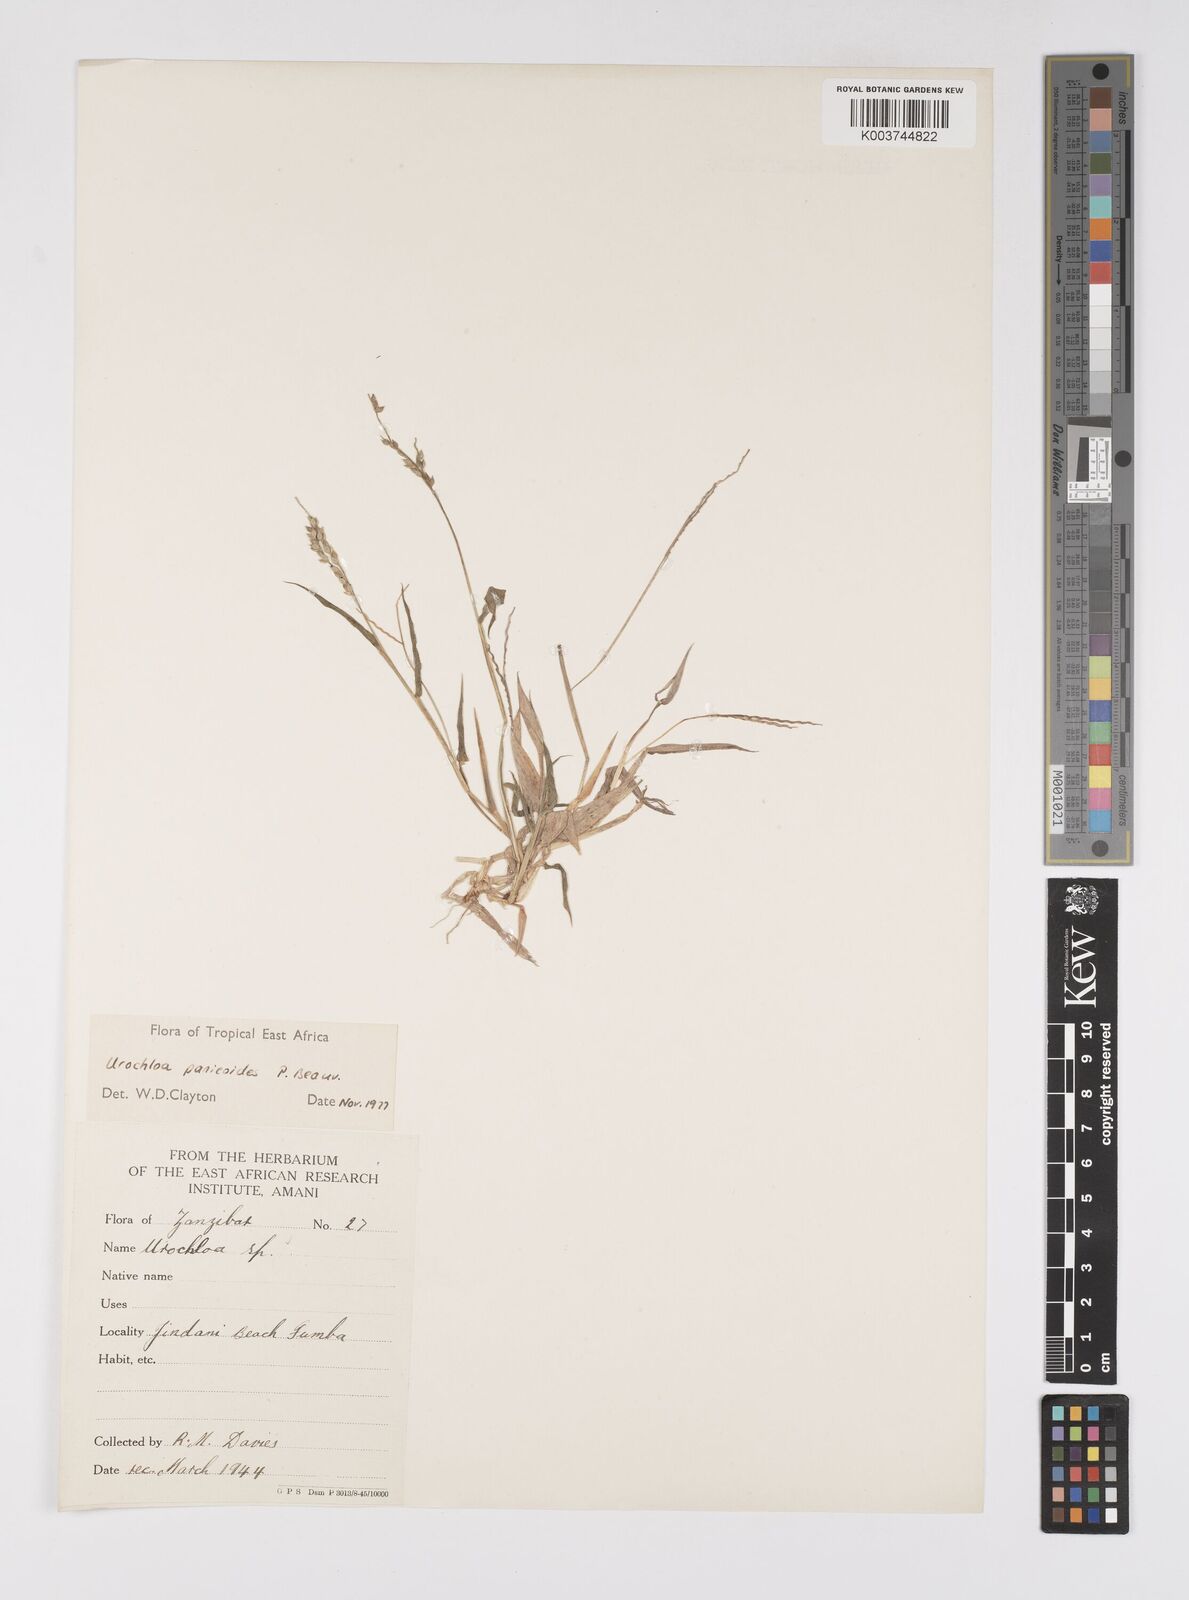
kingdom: Plantae
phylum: Tracheophyta
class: Liliopsida
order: Poales
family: Poaceae
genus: Urochloa
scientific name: Urochloa panicoides
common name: Sharp-flowered signal-grass
